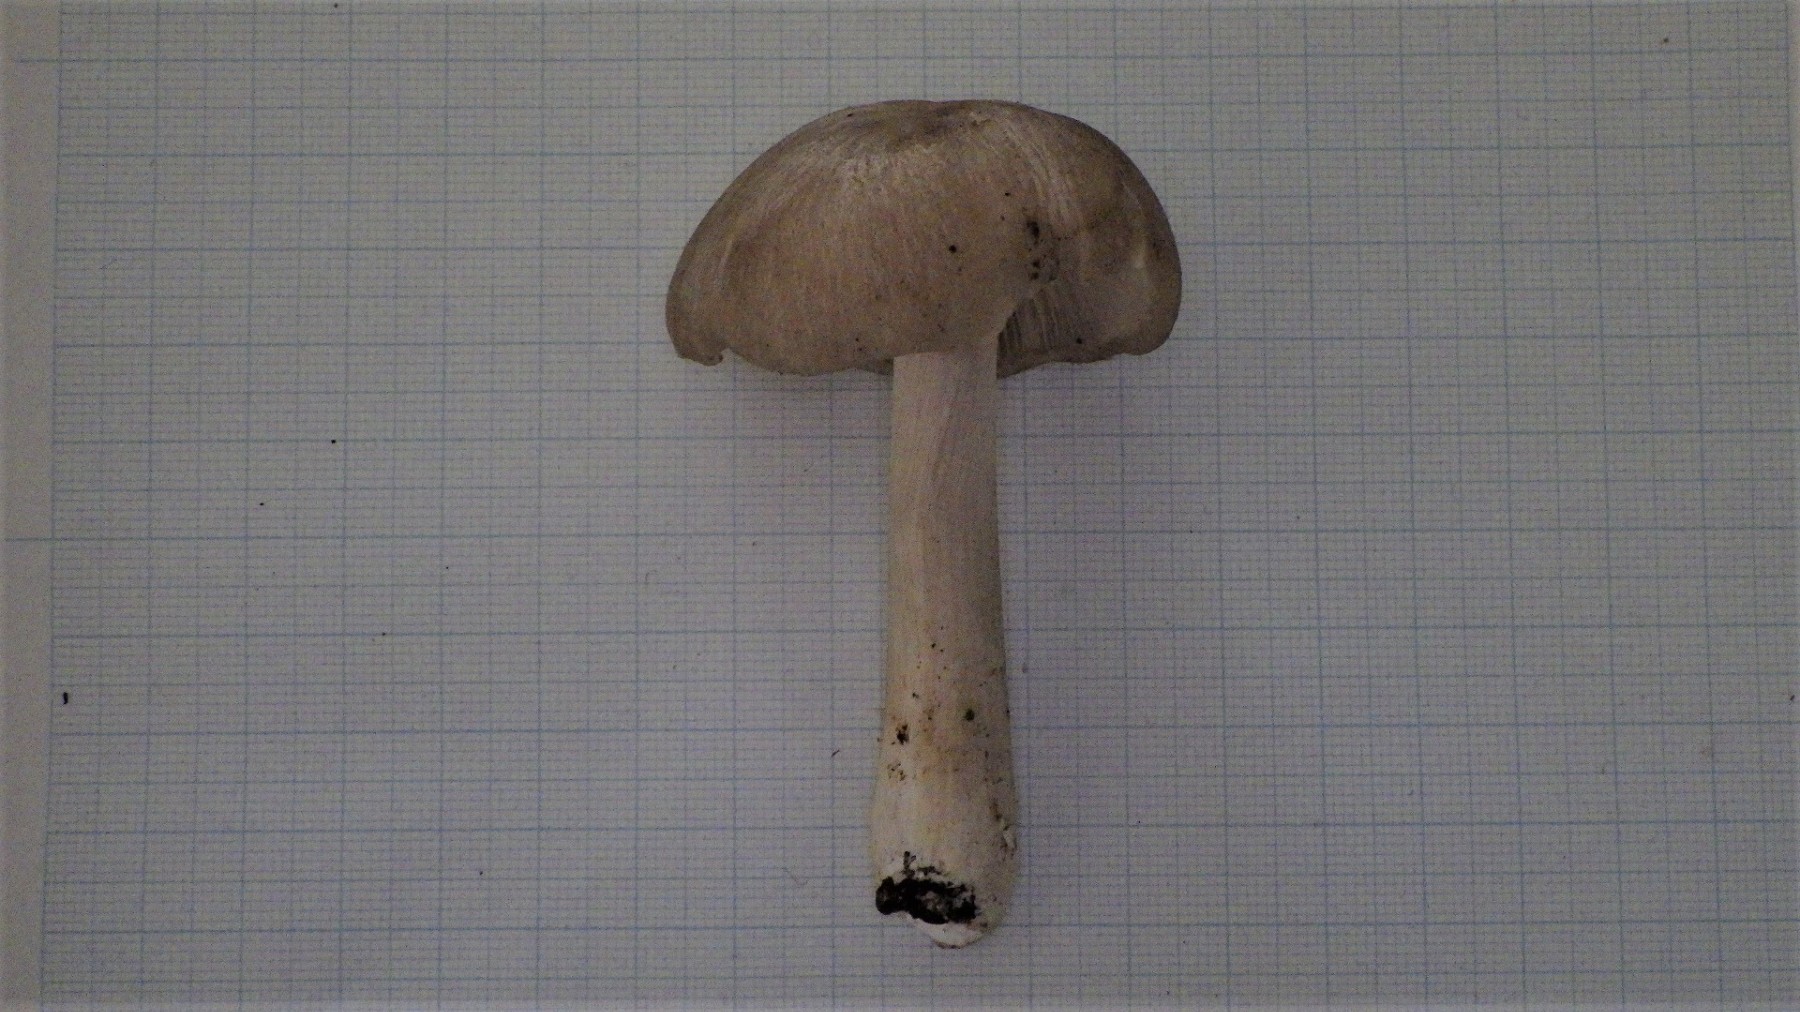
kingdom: Fungi
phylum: Basidiomycota
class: Agaricomycetes
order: Agaricales
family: Tricholomataceae
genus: Megacollybia
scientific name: Megacollybia platyphylla
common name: bredbladet væbnerhat
